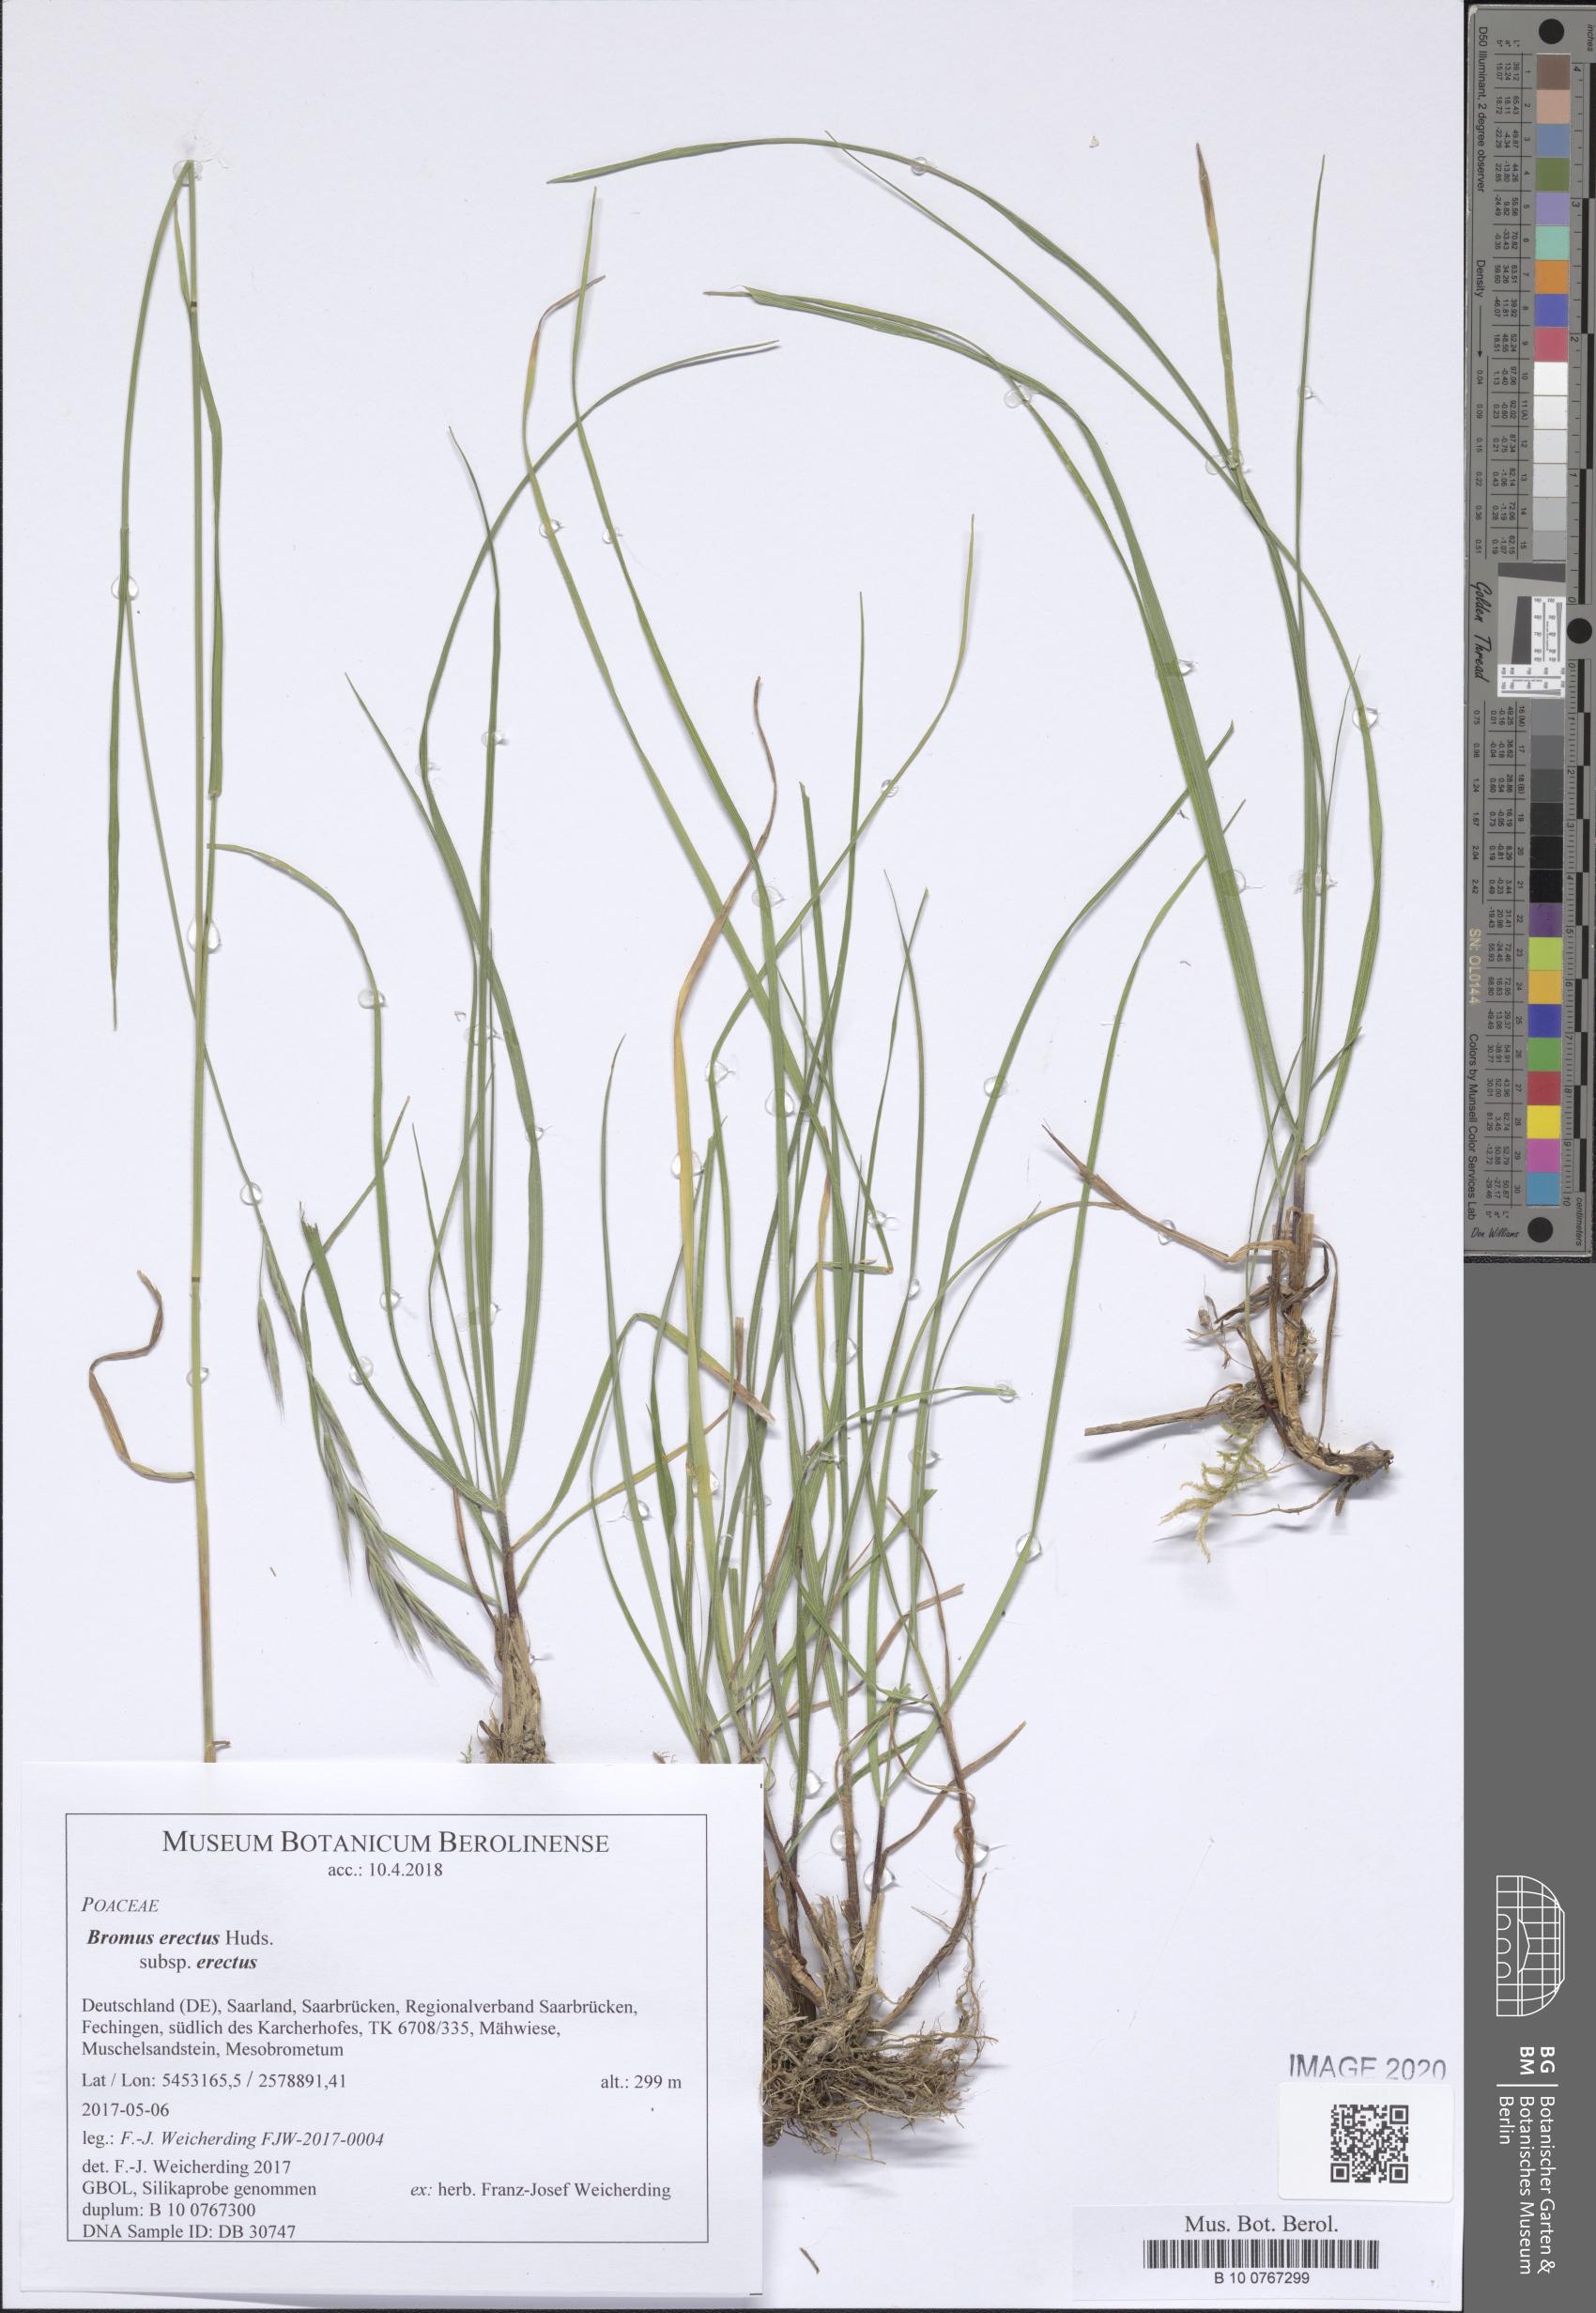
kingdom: Plantae
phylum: Tracheophyta
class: Liliopsida
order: Poales
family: Poaceae
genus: Bromus
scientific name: Bromus erectus
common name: Erect brome
